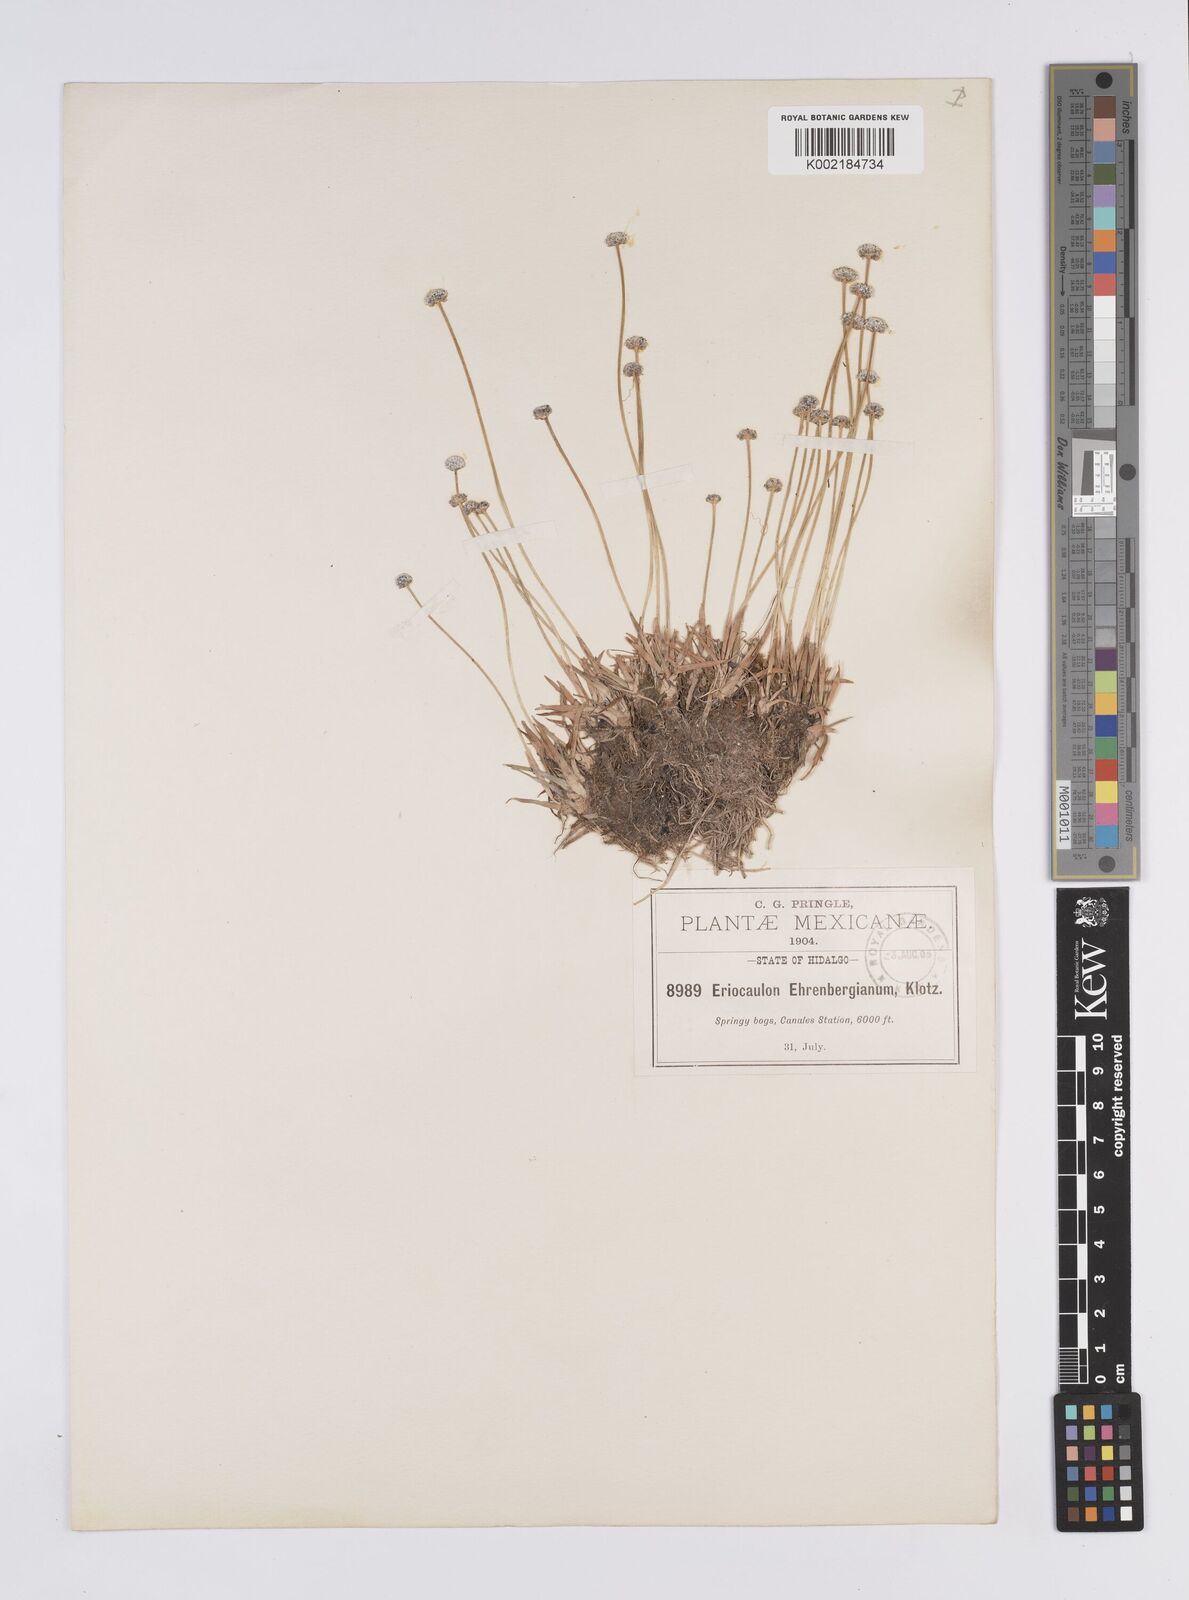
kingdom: Plantae
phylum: Tracheophyta
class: Liliopsida
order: Poales
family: Eriocaulaceae
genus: Eriocaulon
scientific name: Eriocaulon ehrenbergianum
